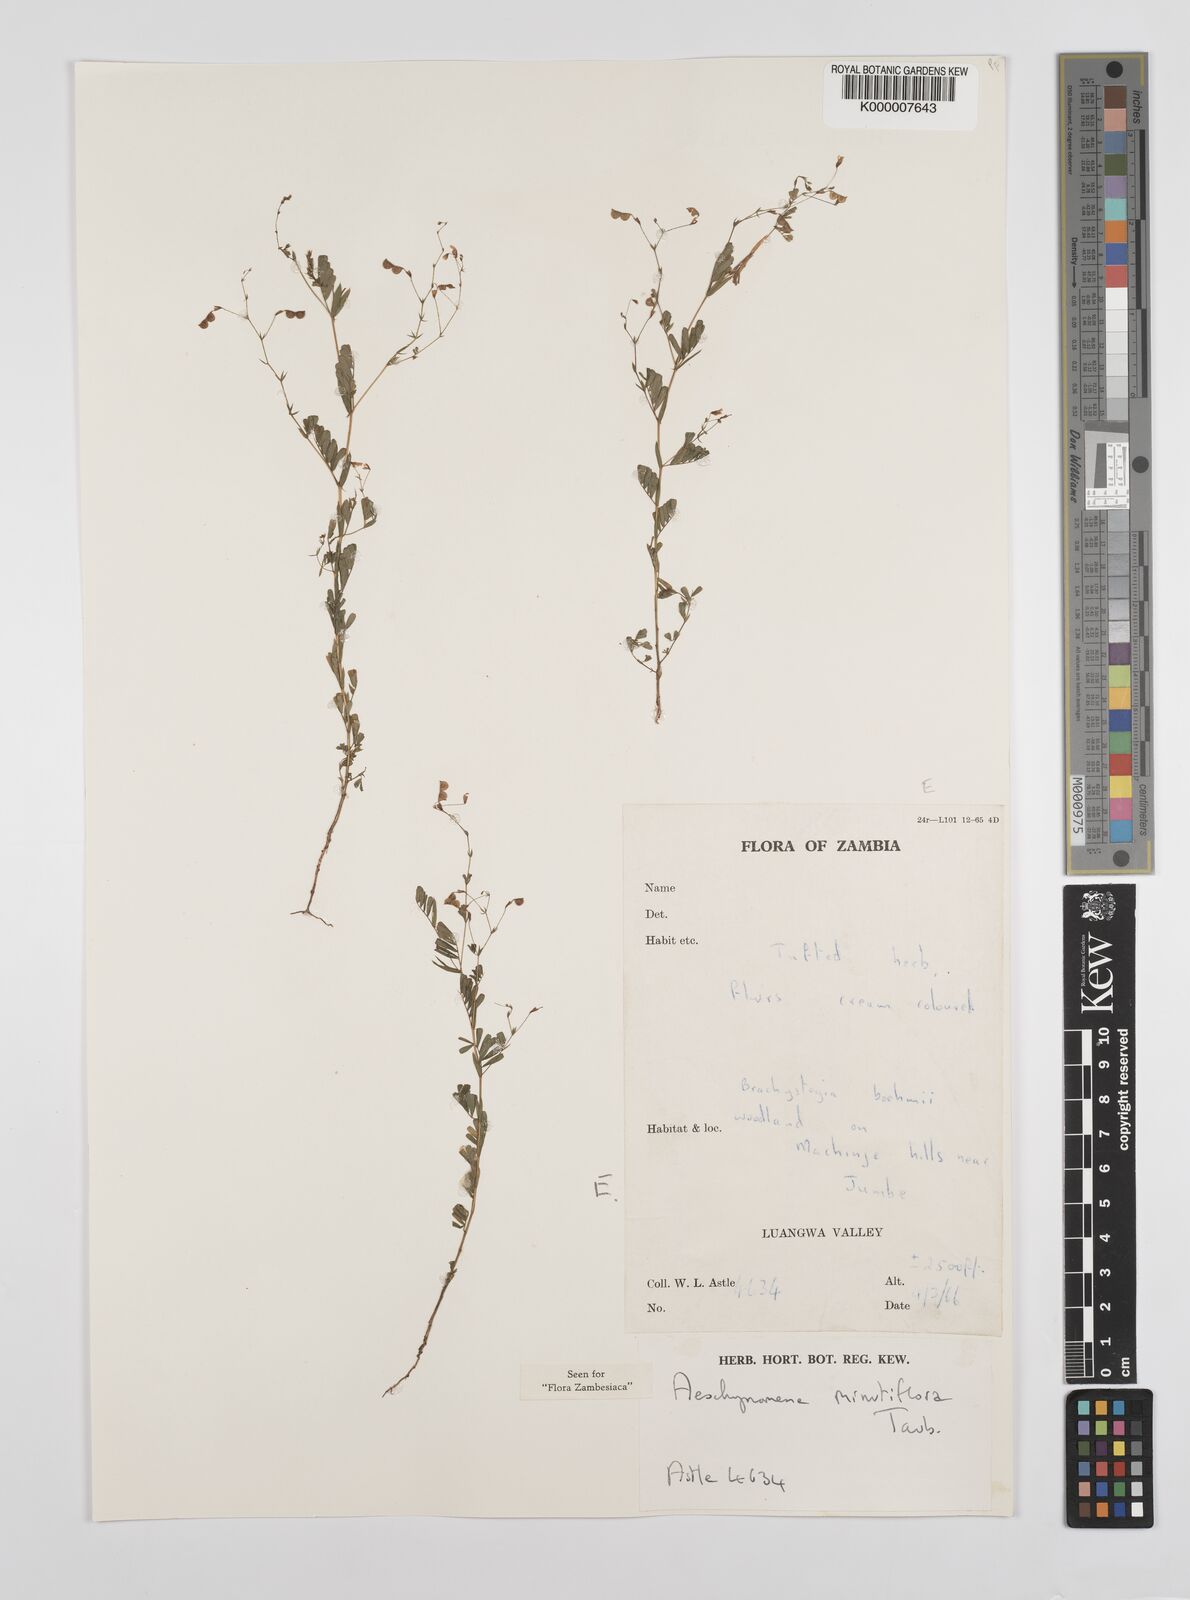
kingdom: Plantae
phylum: Tracheophyta
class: Magnoliopsida
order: Fabales
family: Fabaceae
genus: Aeschynomene
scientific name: Aeschynomene minutiflora
